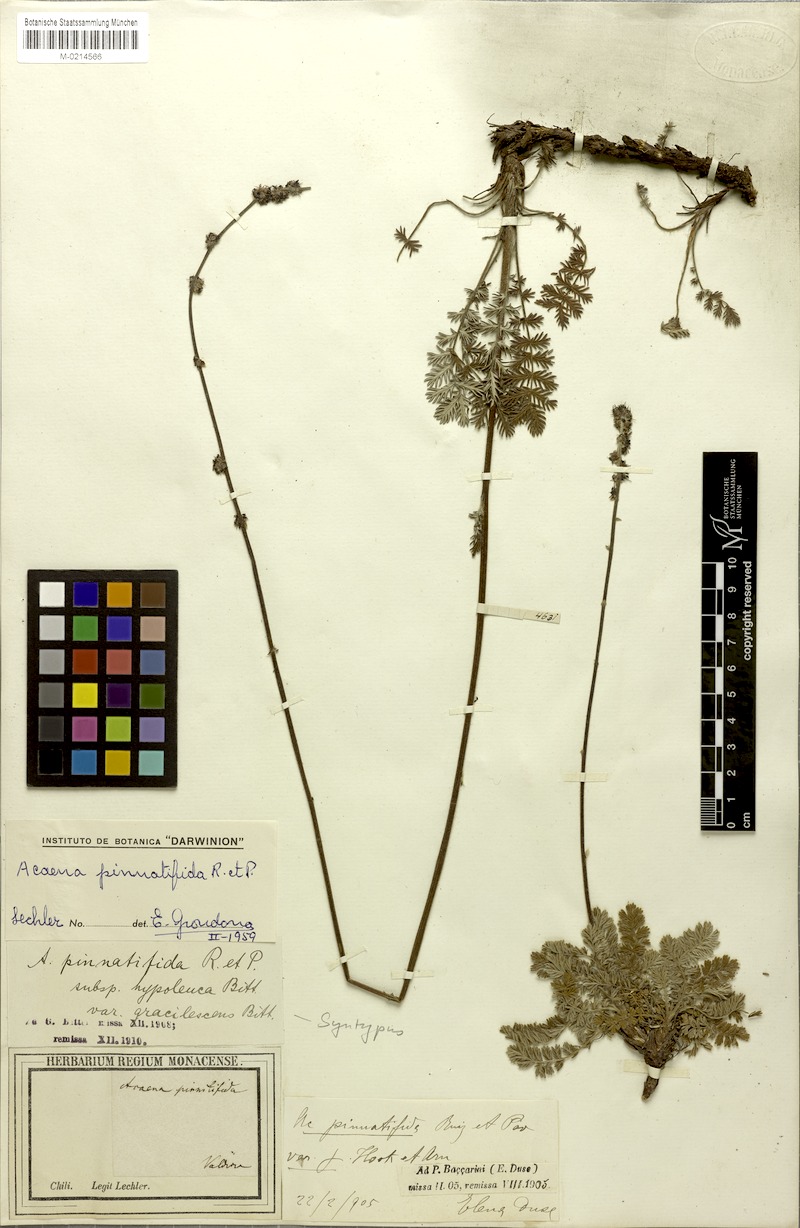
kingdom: Plantae
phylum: Tracheophyta
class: Magnoliopsida
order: Rosales
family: Rosaceae
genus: Acaena
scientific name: Acaena pinnatifida
